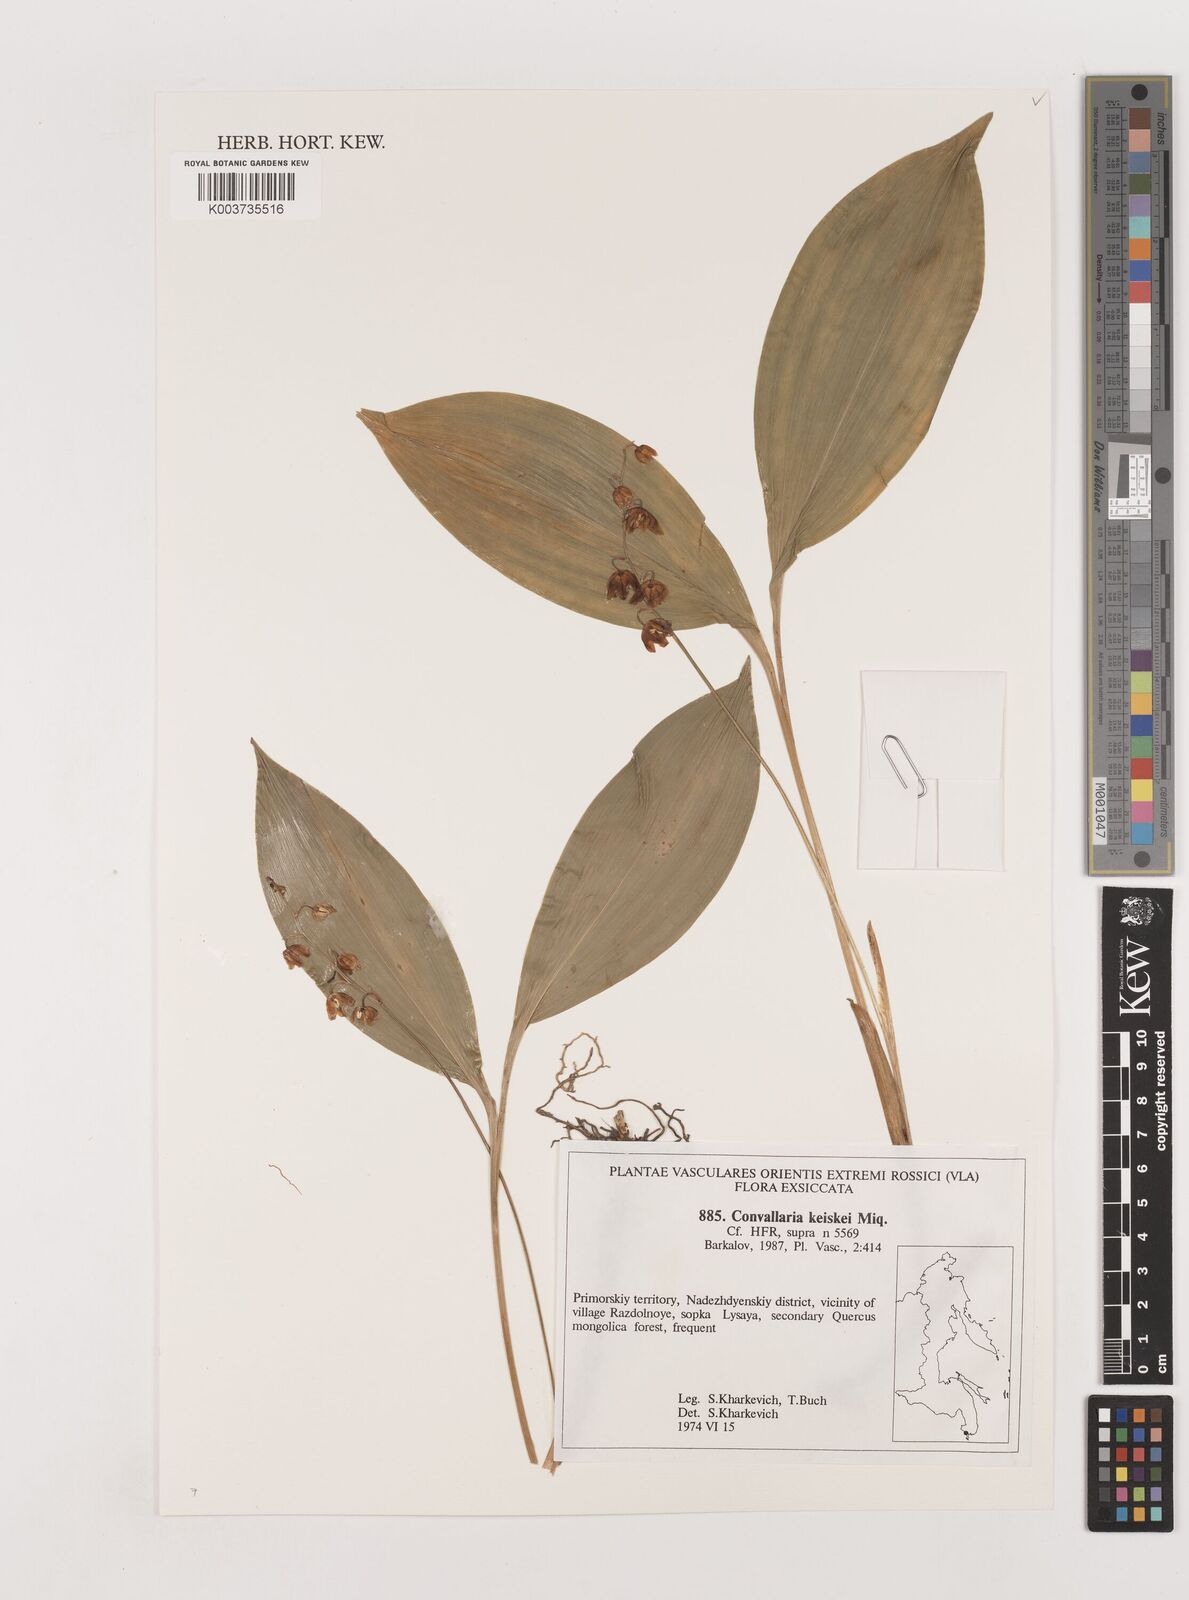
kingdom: Plantae
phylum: Tracheophyta
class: Liliopsida
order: Asparagales
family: Asparagaceae
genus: Convallaria
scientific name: Convallaria keiskei
